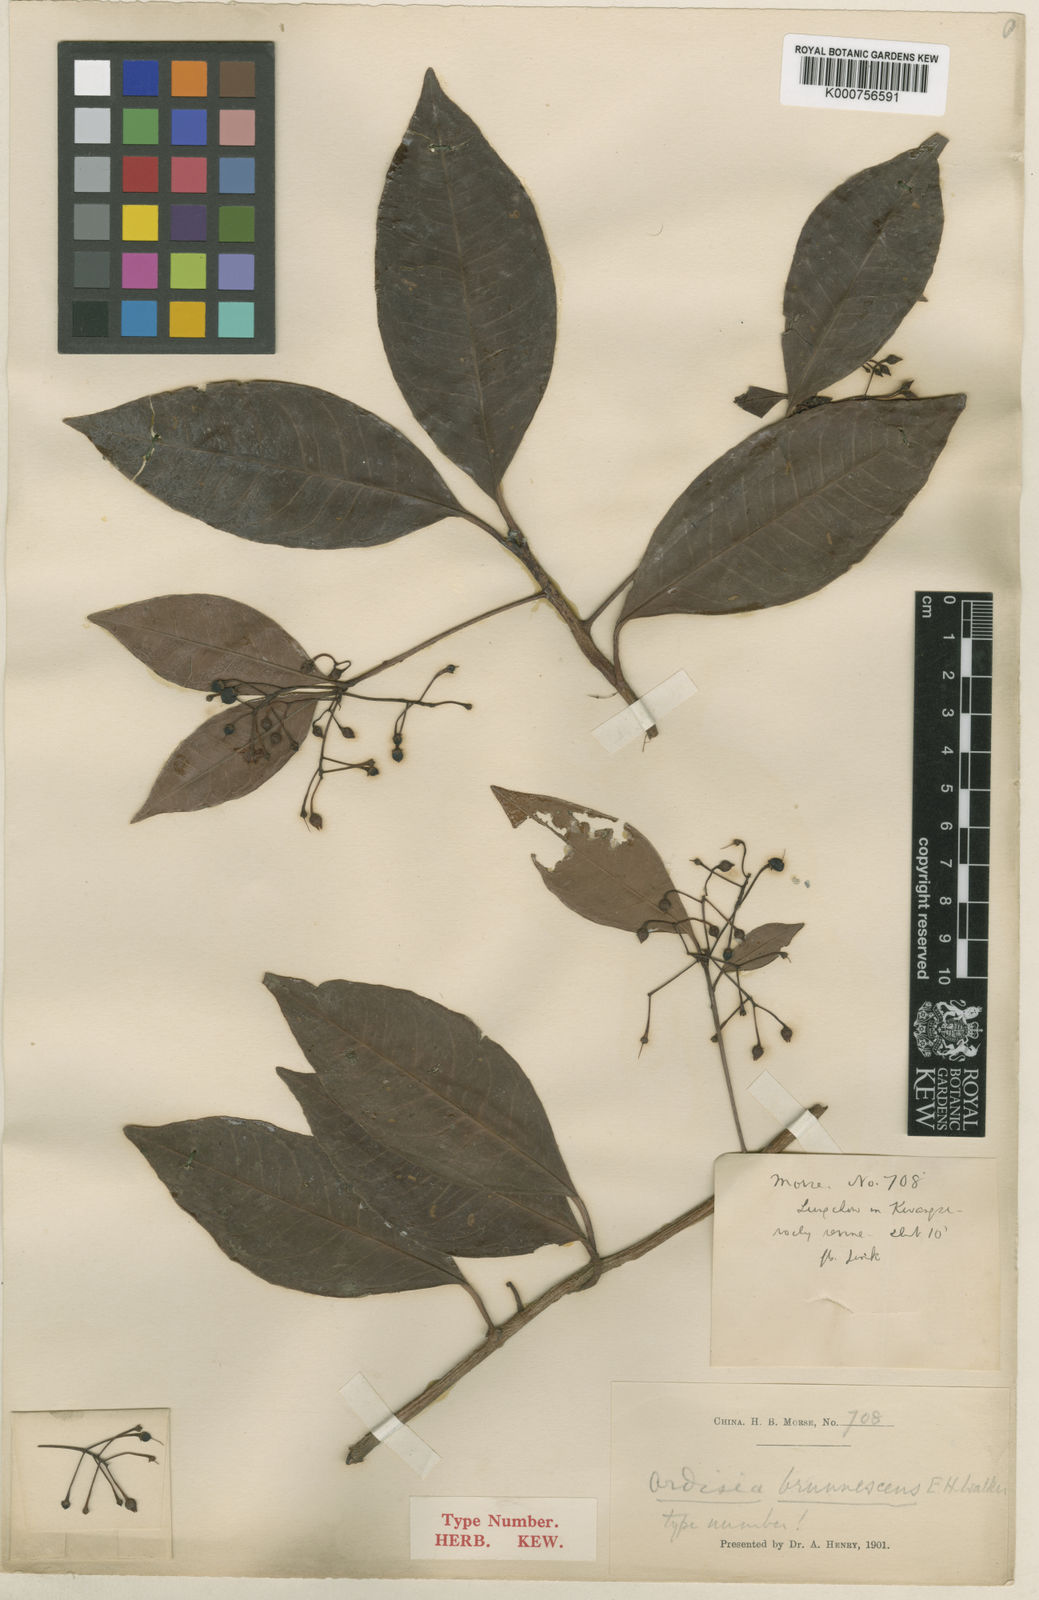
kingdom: Plantae
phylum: Tracheophyta
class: Magnoliopsida
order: Ericales
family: Primulaceae
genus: Ardisia
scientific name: Ardisia brunnescens
